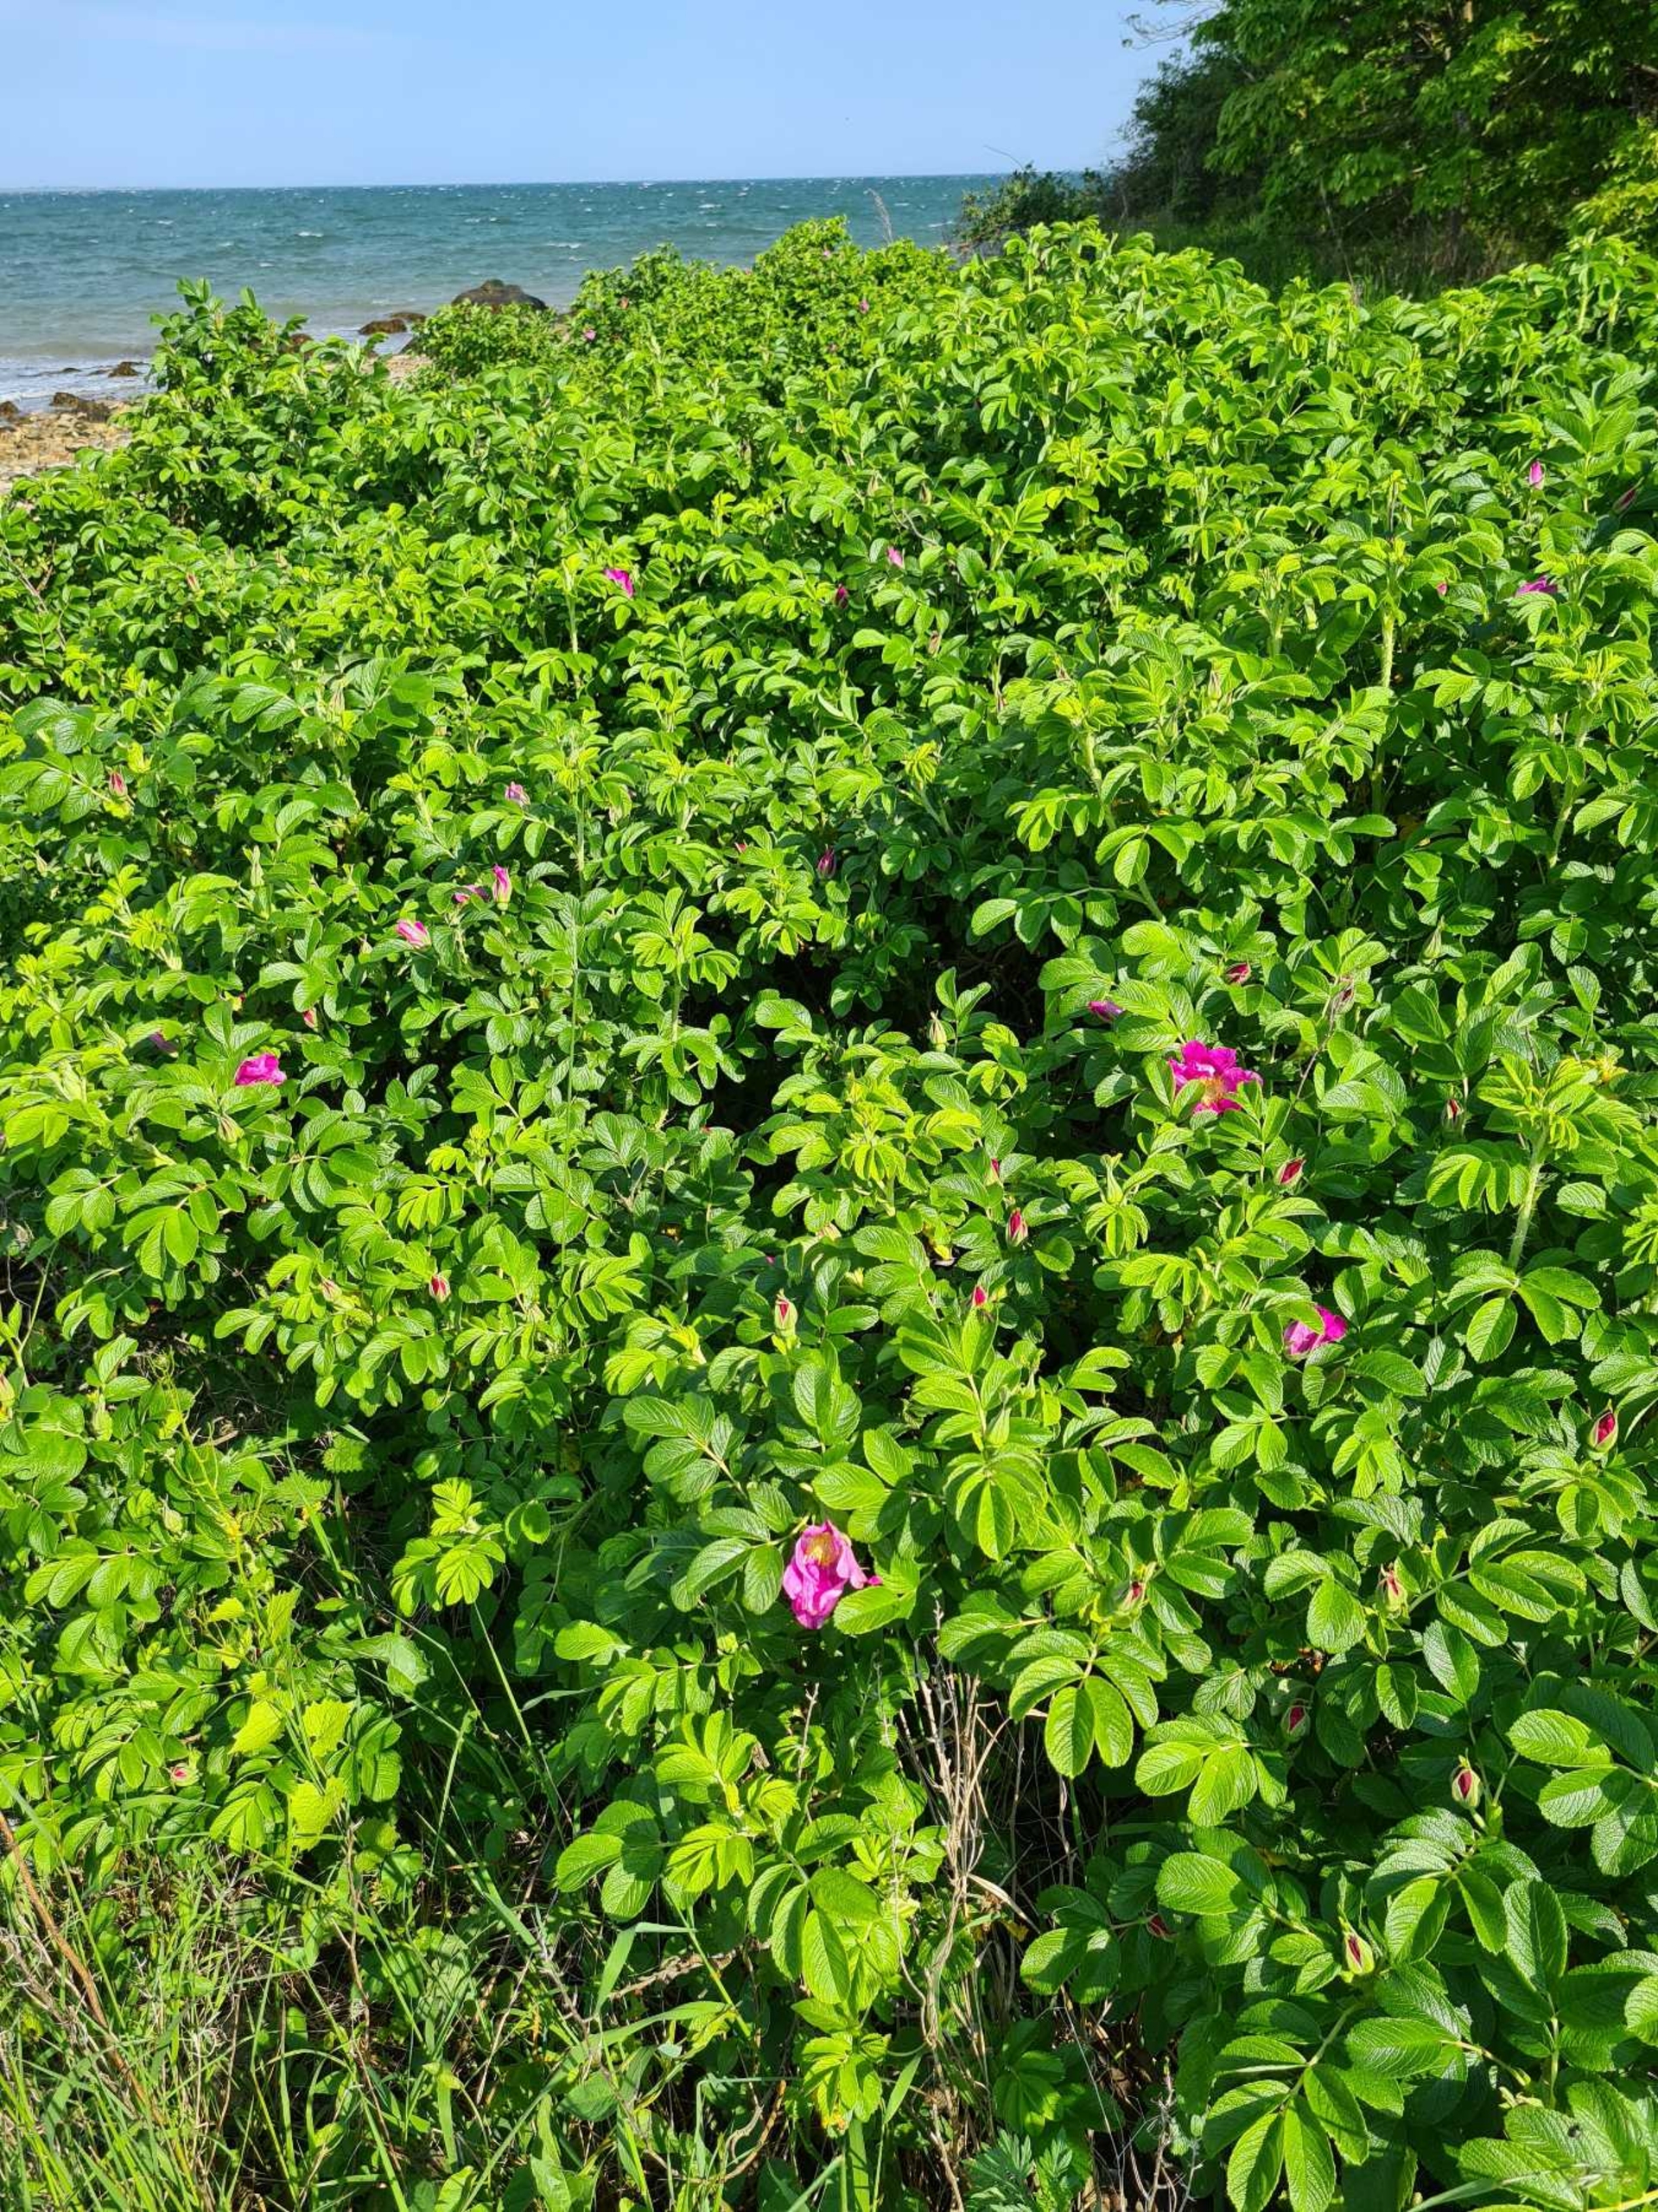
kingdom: Plantae
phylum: Tracheophyta
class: Magnoliopsida
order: Rosales
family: Rosaceae
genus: Rosa
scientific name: Rosa rugosa
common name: Rynket rose
